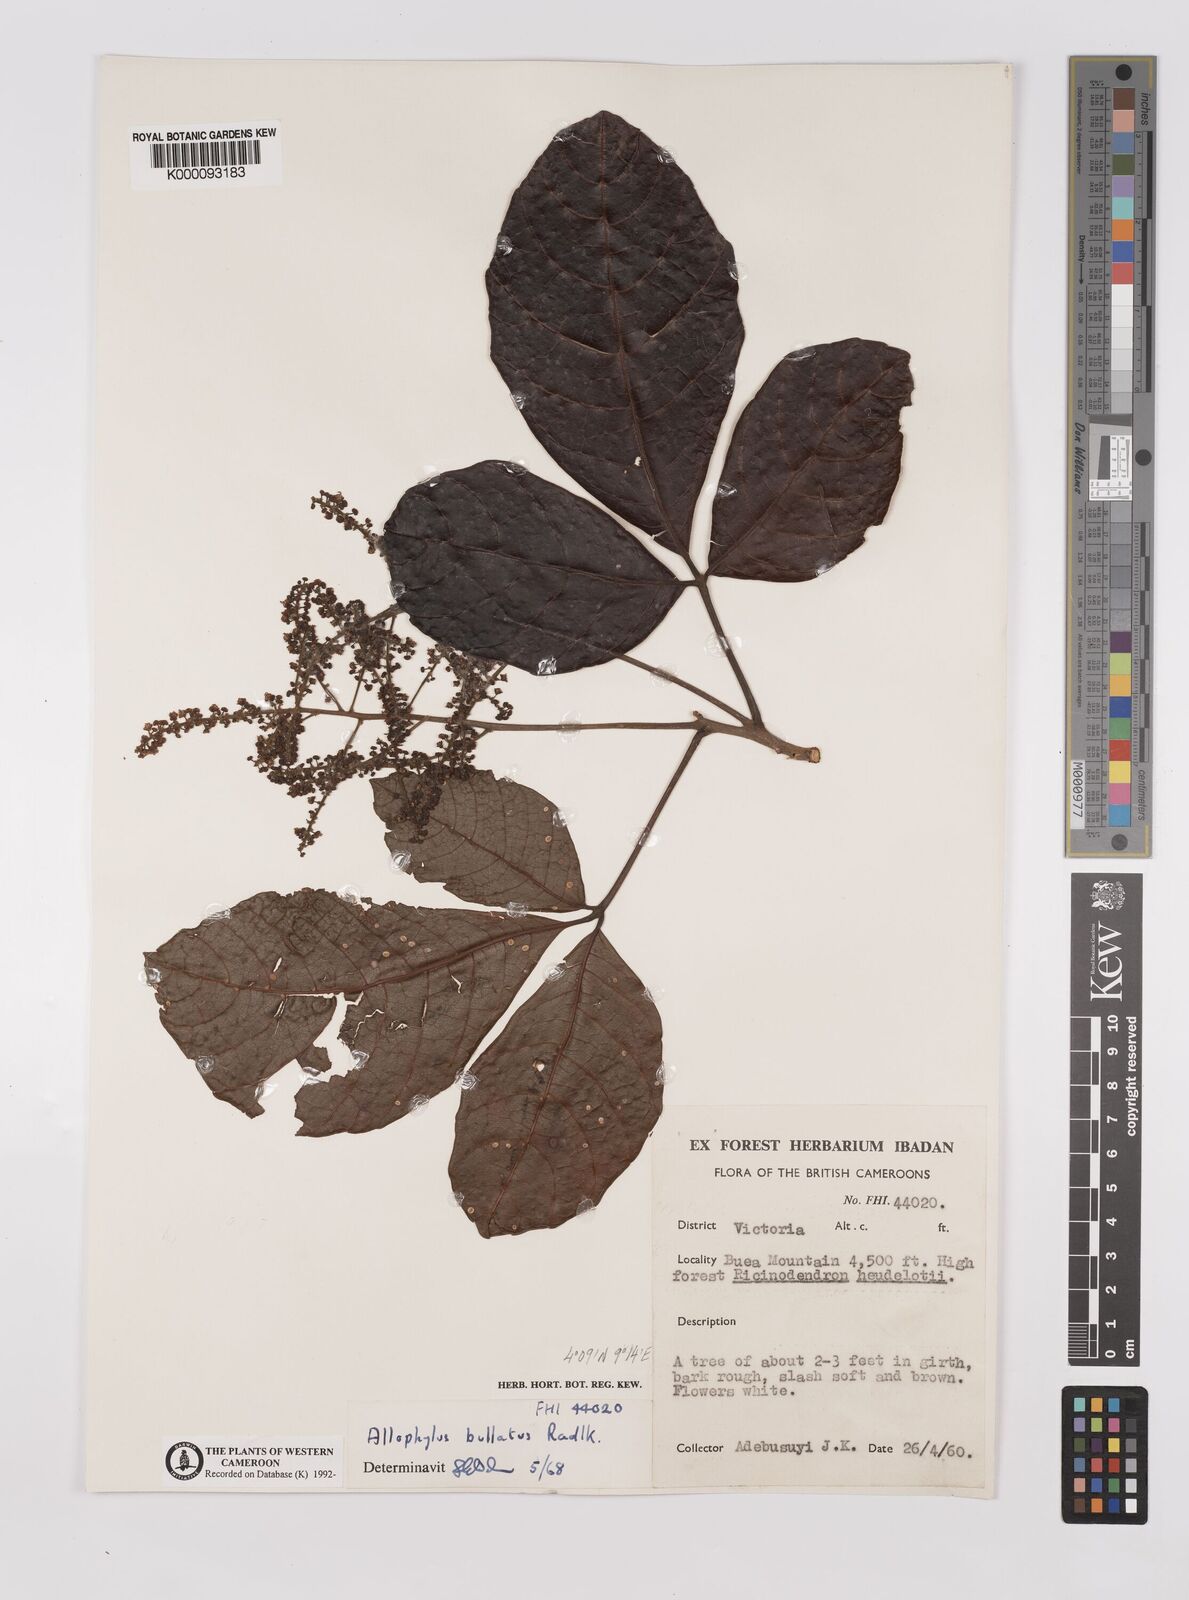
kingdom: Plantae
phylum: Tracheophyta
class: Magnoliopsida
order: Sapindales
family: Sapindaceae
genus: Allophylus
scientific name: Allophylus bullatus
